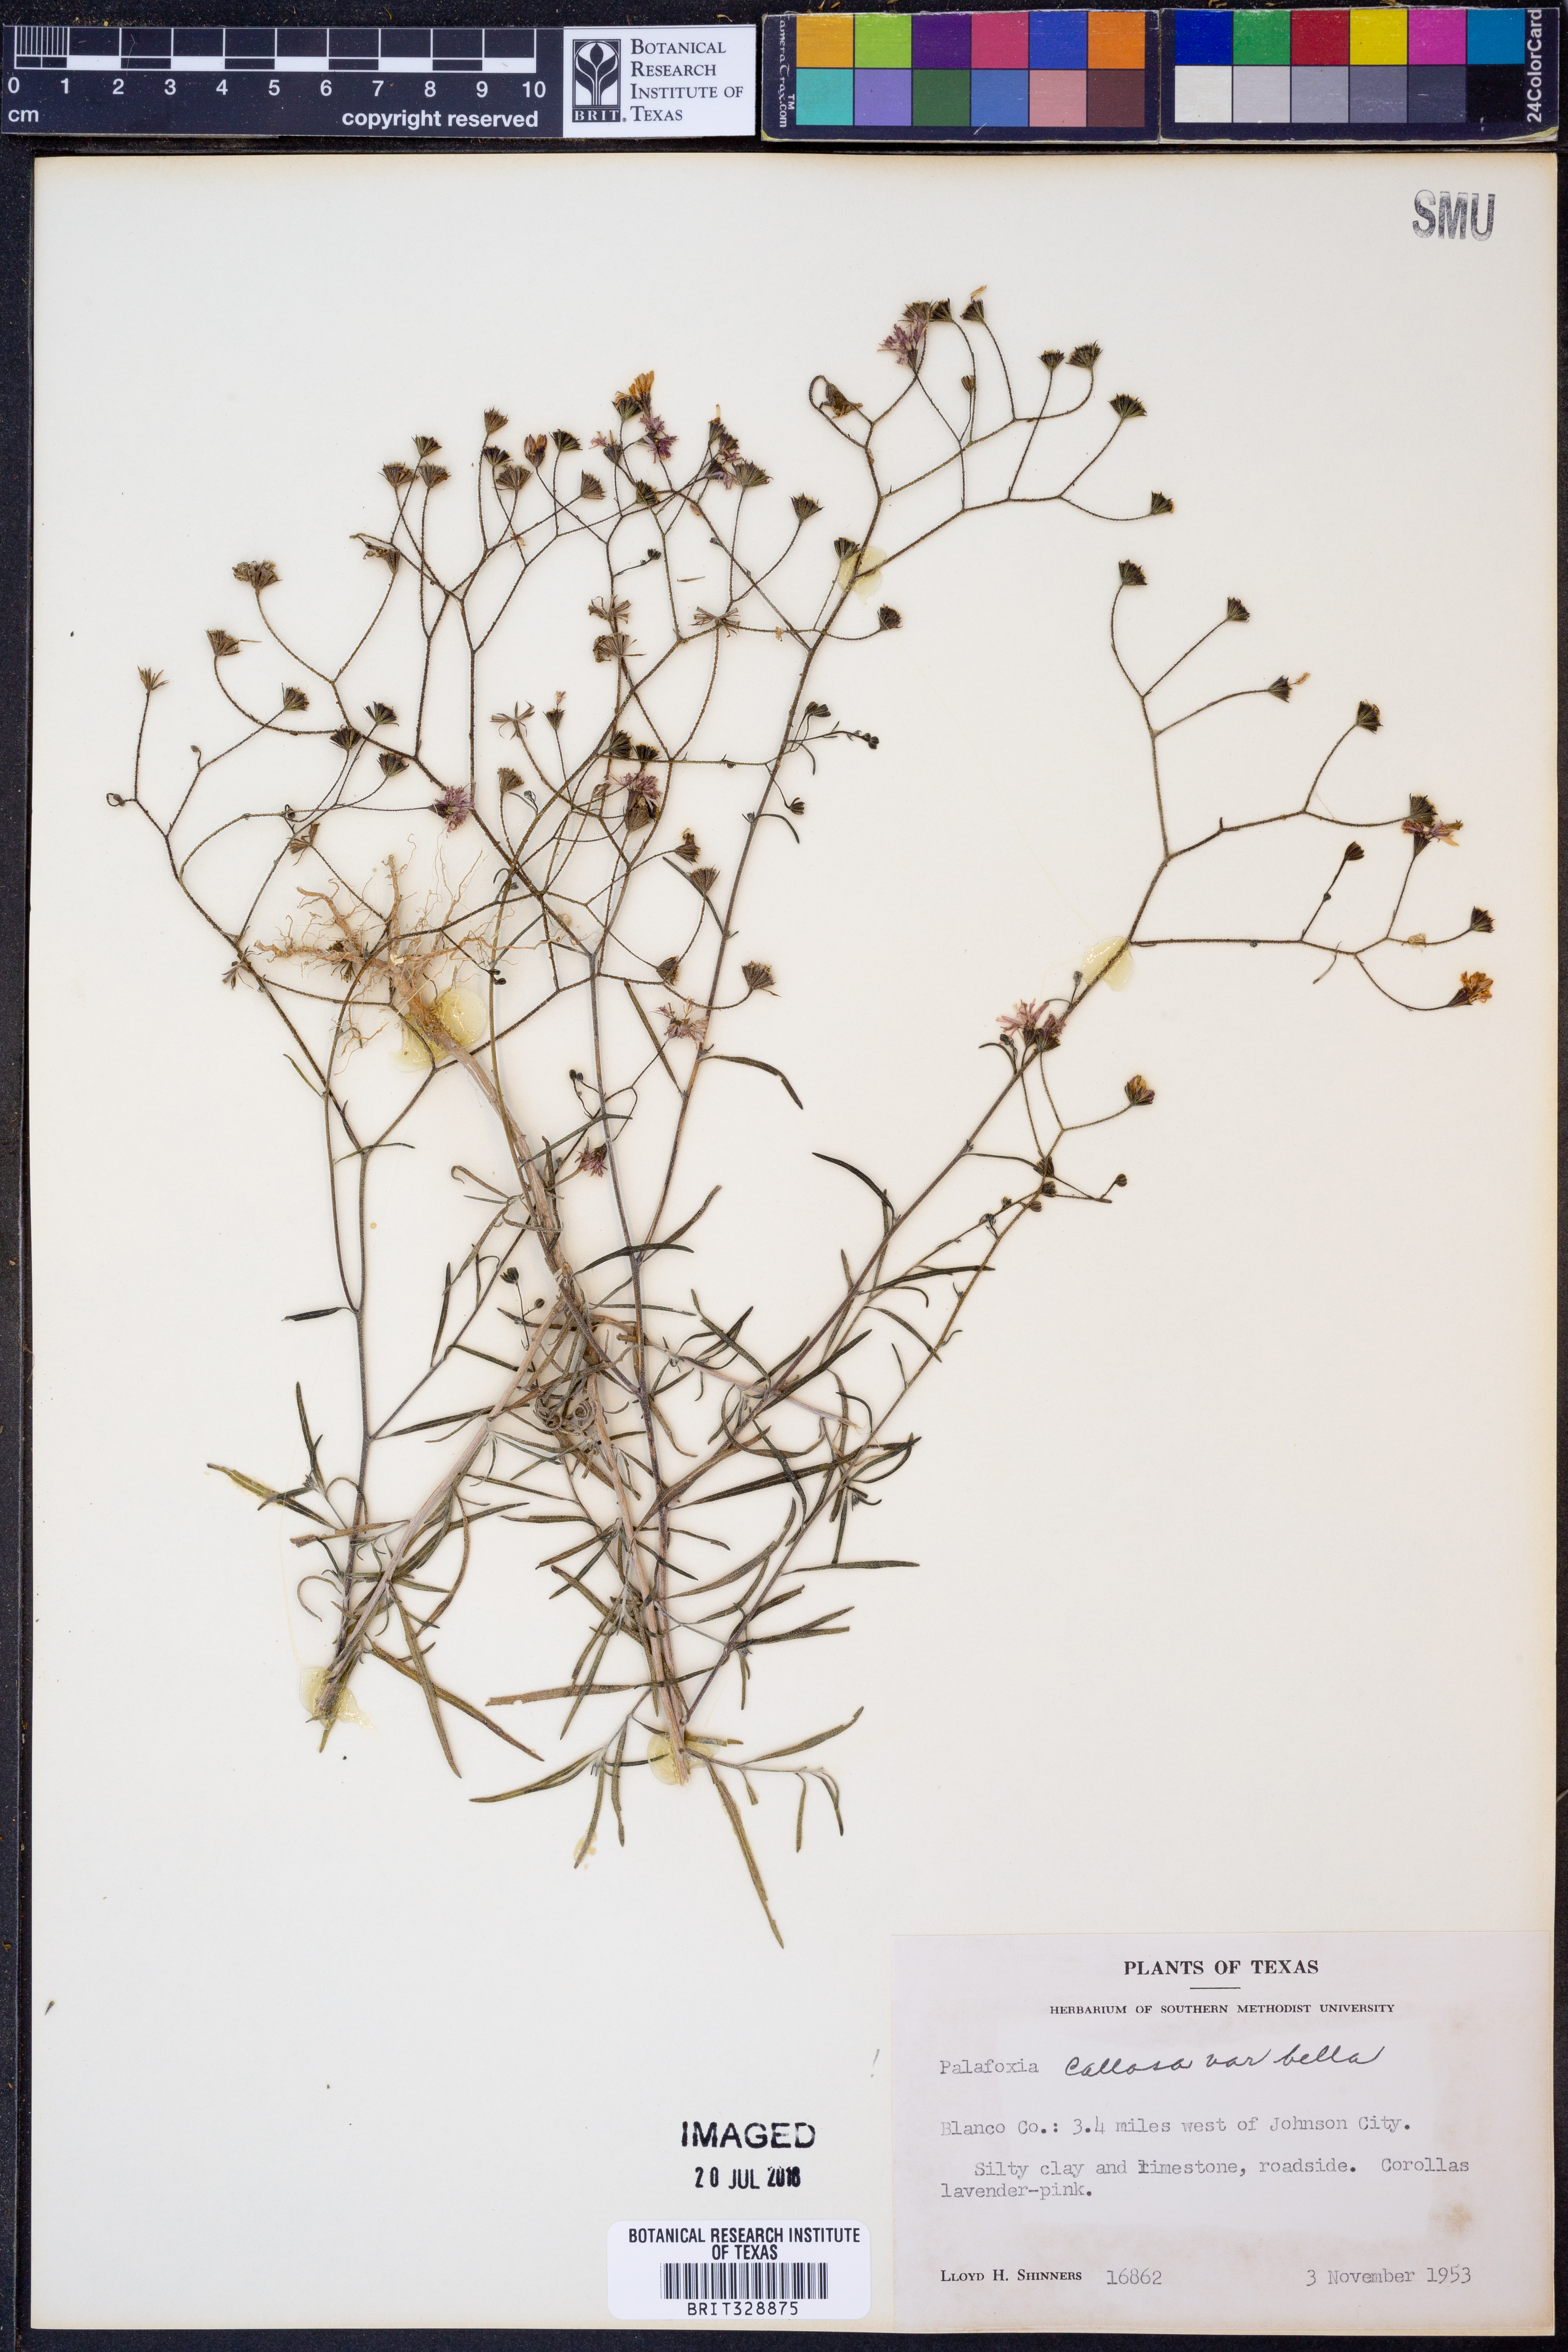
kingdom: Plantae
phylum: Tracheophyta
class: Magnoliopsida
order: Asterales
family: Asteraceae
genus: Palafoxia
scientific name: Palafoxia callosa
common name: Small palafox
